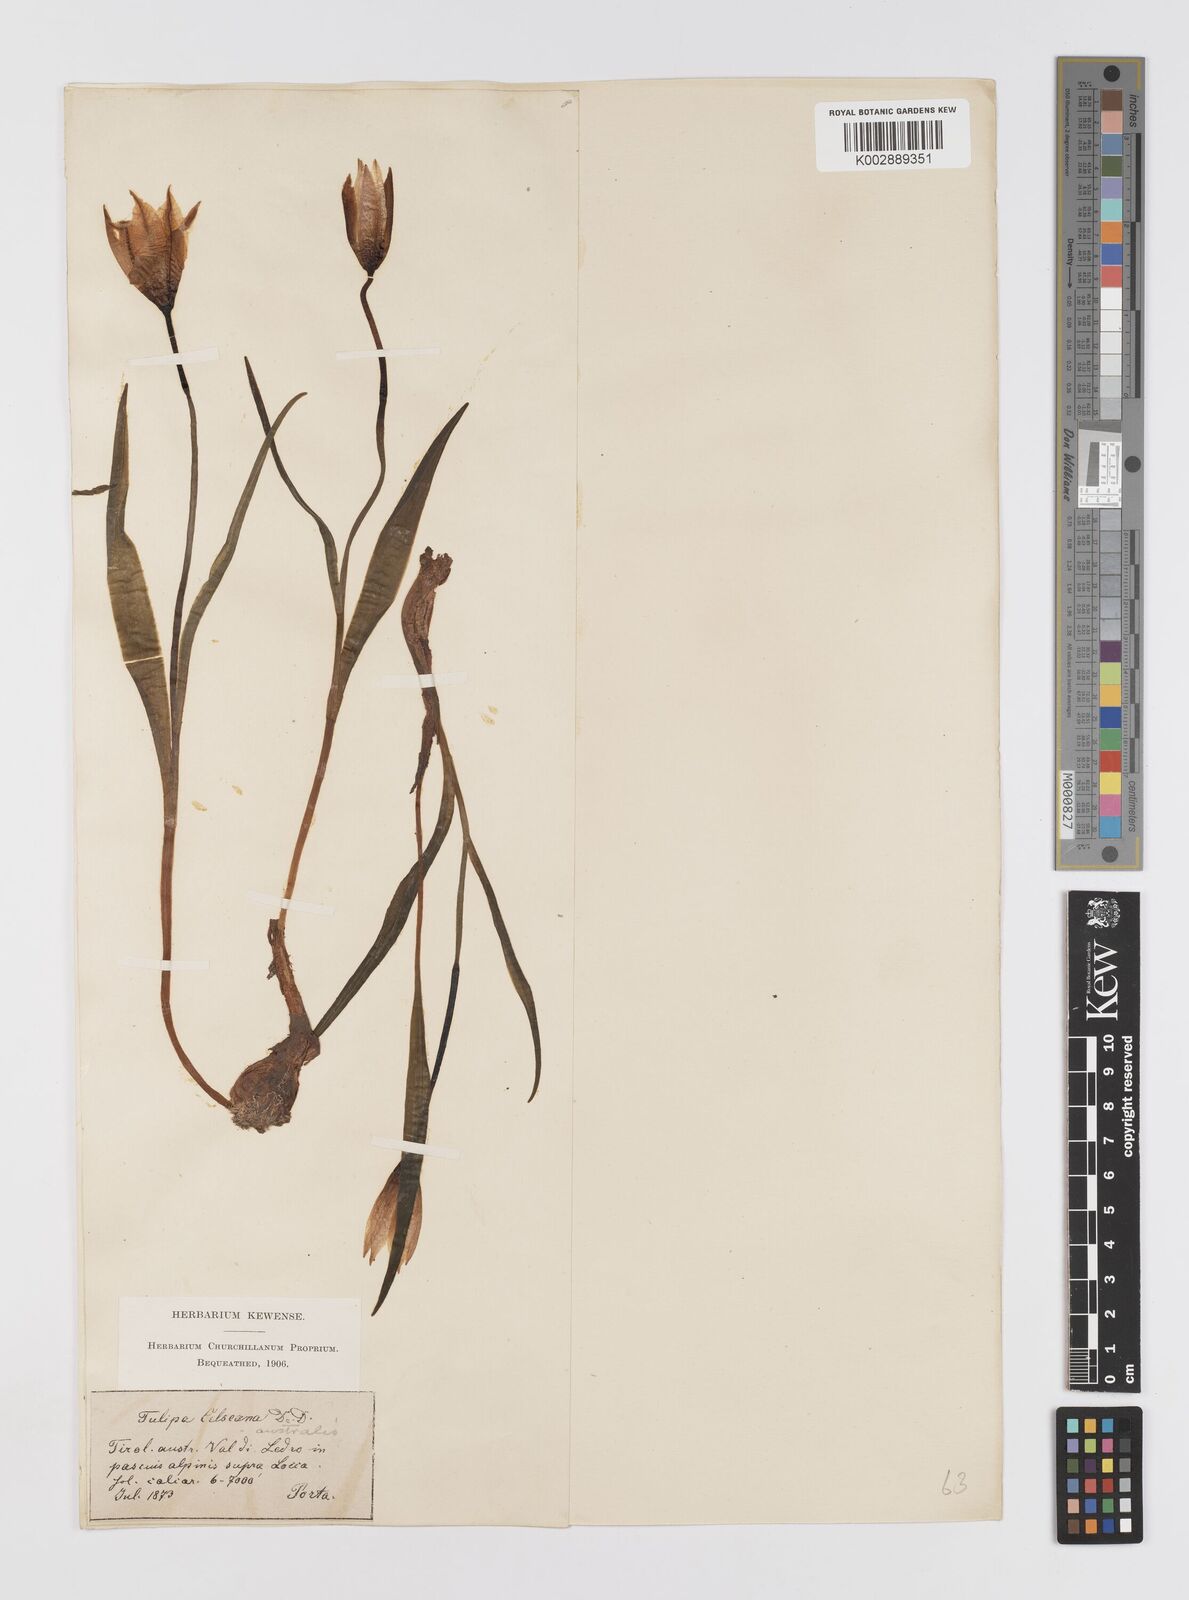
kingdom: Plantae
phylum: Tracheophyta
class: Liliopsida
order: Liliales
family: Liliaceae
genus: Tulipa
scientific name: Tulipa sylvestris
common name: Wild tulip
